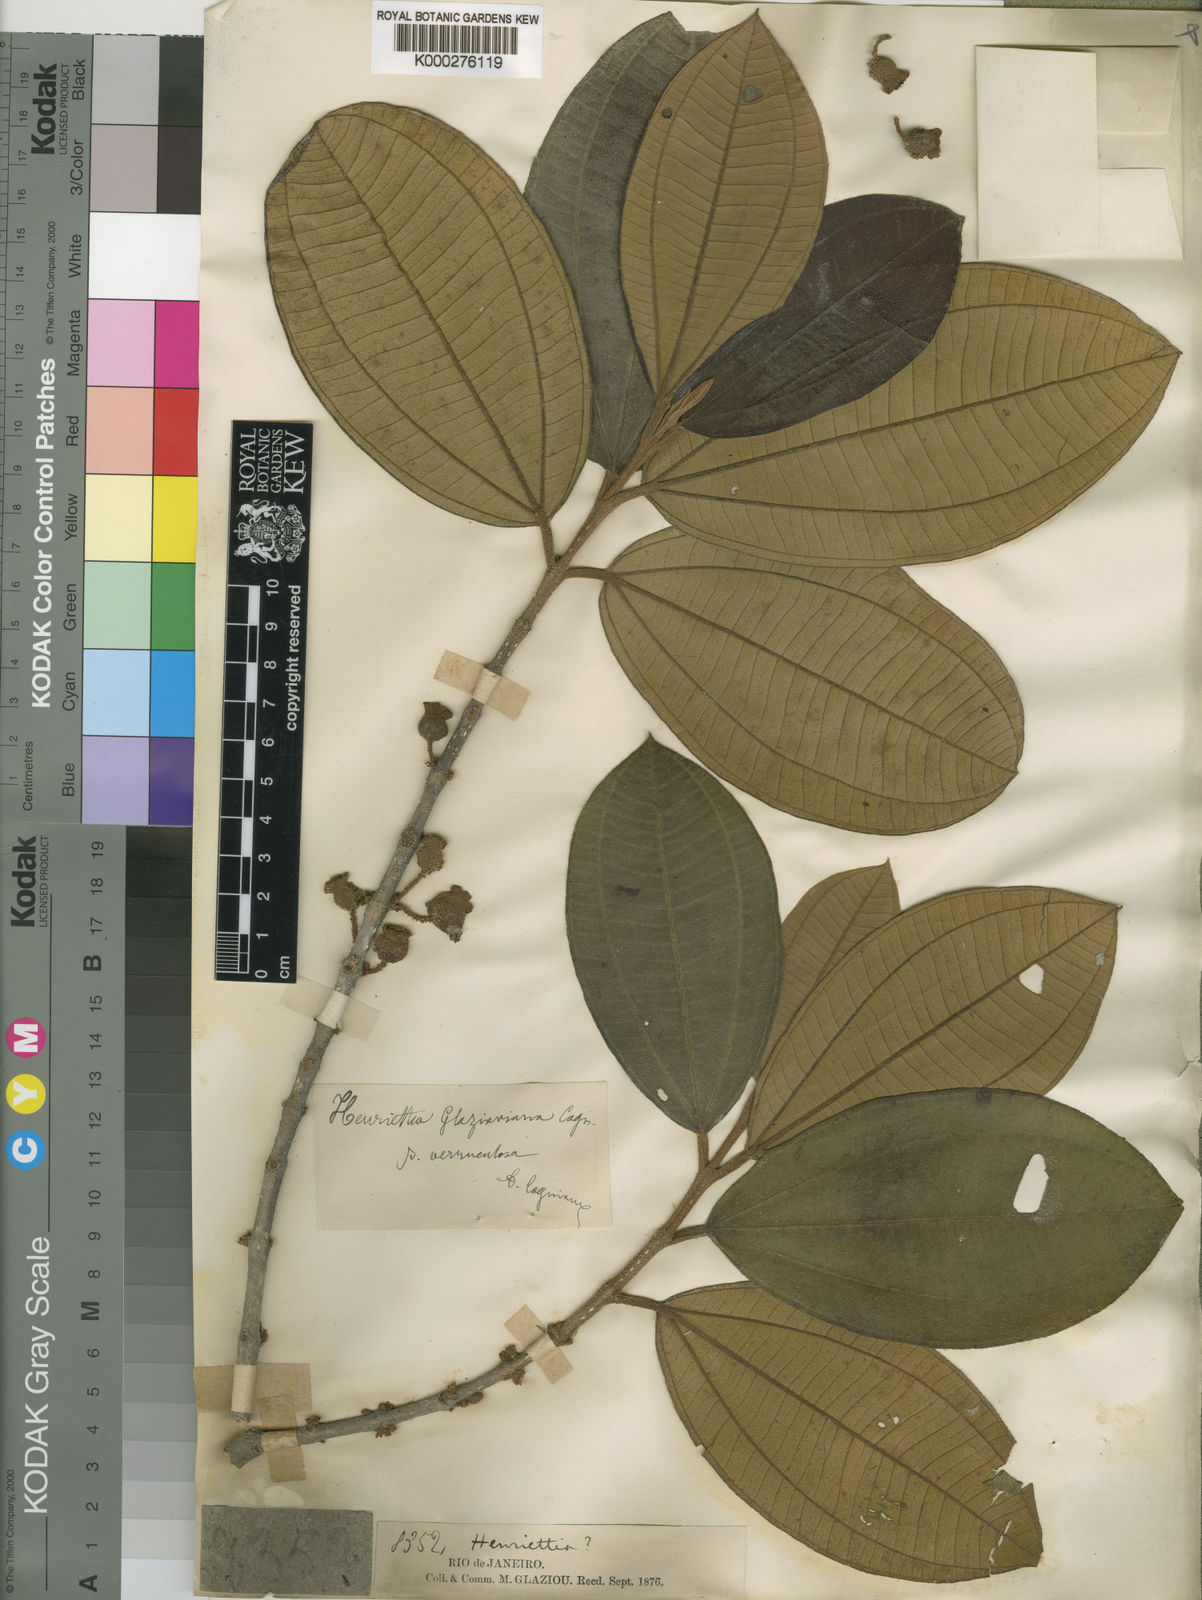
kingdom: Plantae
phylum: Tracheophyta
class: Magnoliopsida
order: Myrtales
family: Melastomataceae
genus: Henriettea
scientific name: Henriettea saldanhaei
